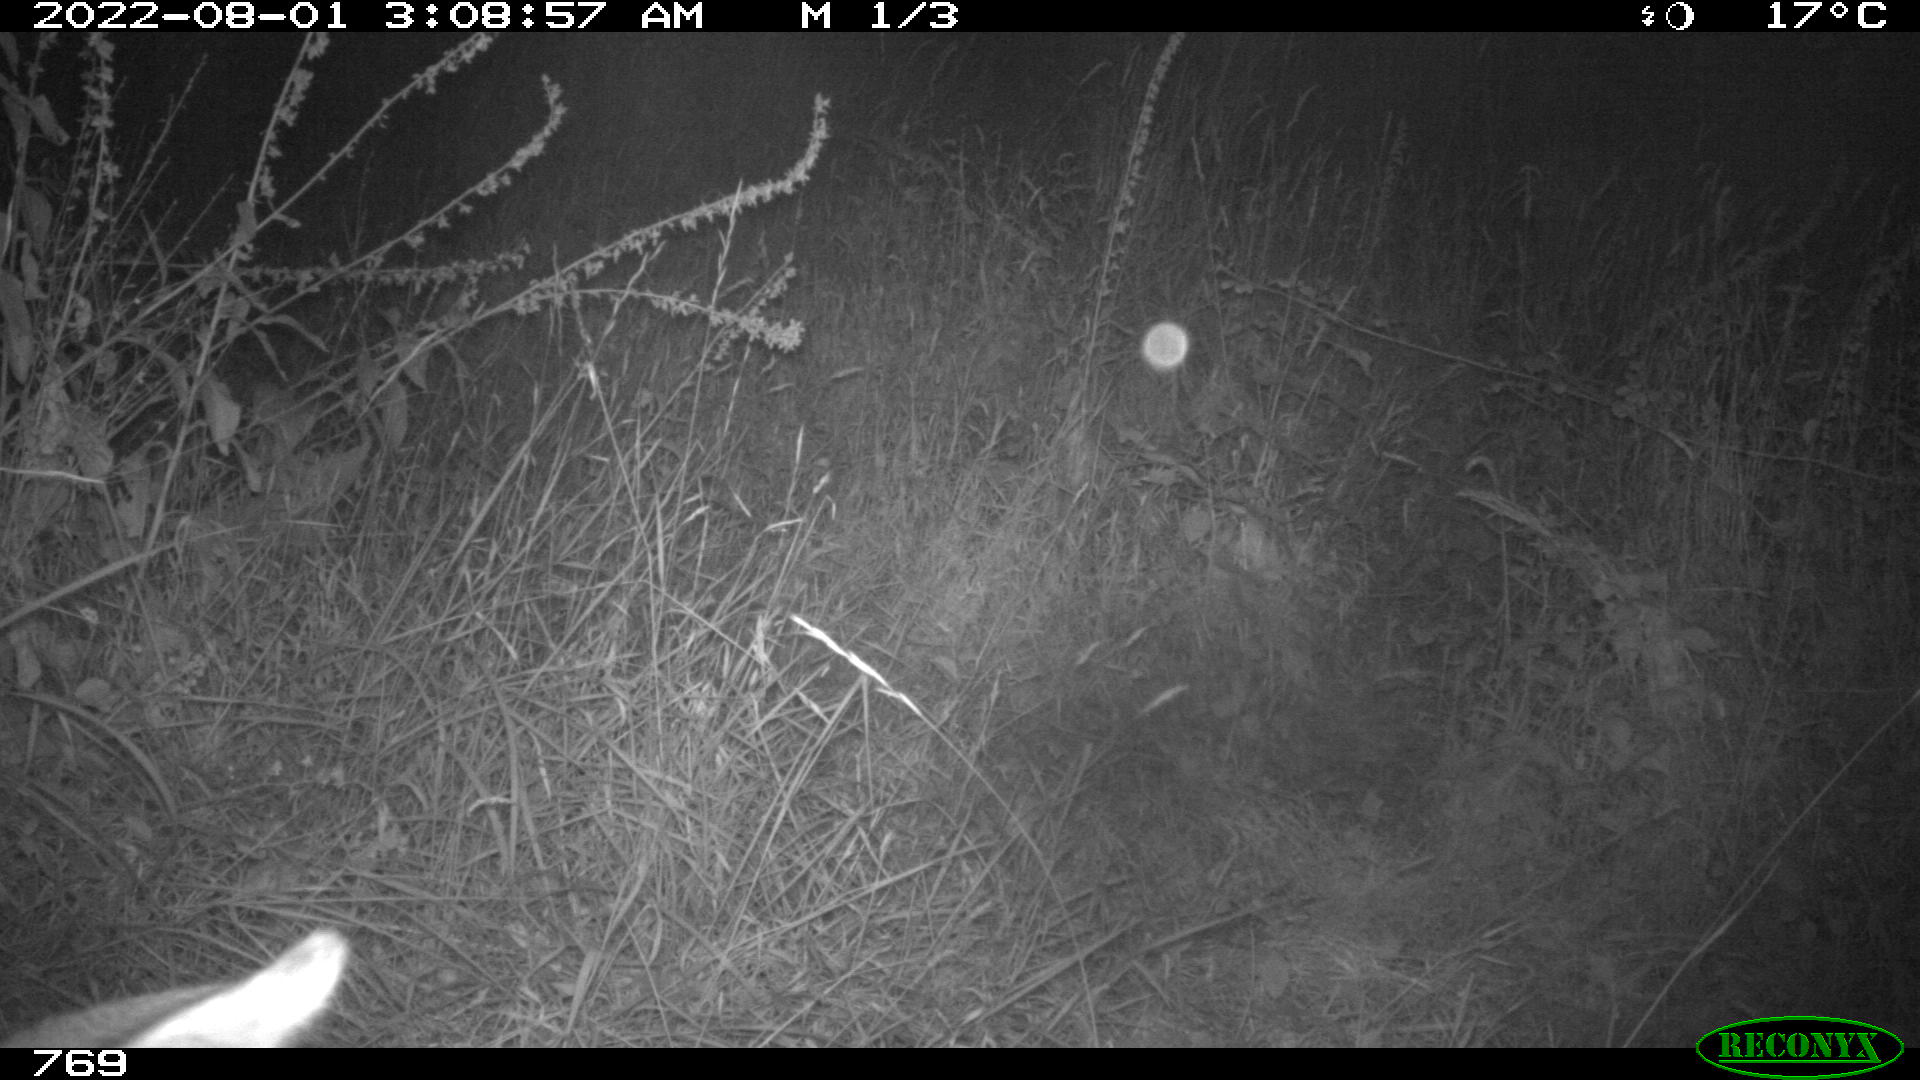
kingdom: Animalia
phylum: Chordata
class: Mammalia
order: Artiodactyla
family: Cervidae
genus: Capreolus
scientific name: Capreolus capreolus
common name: Western roe deer
